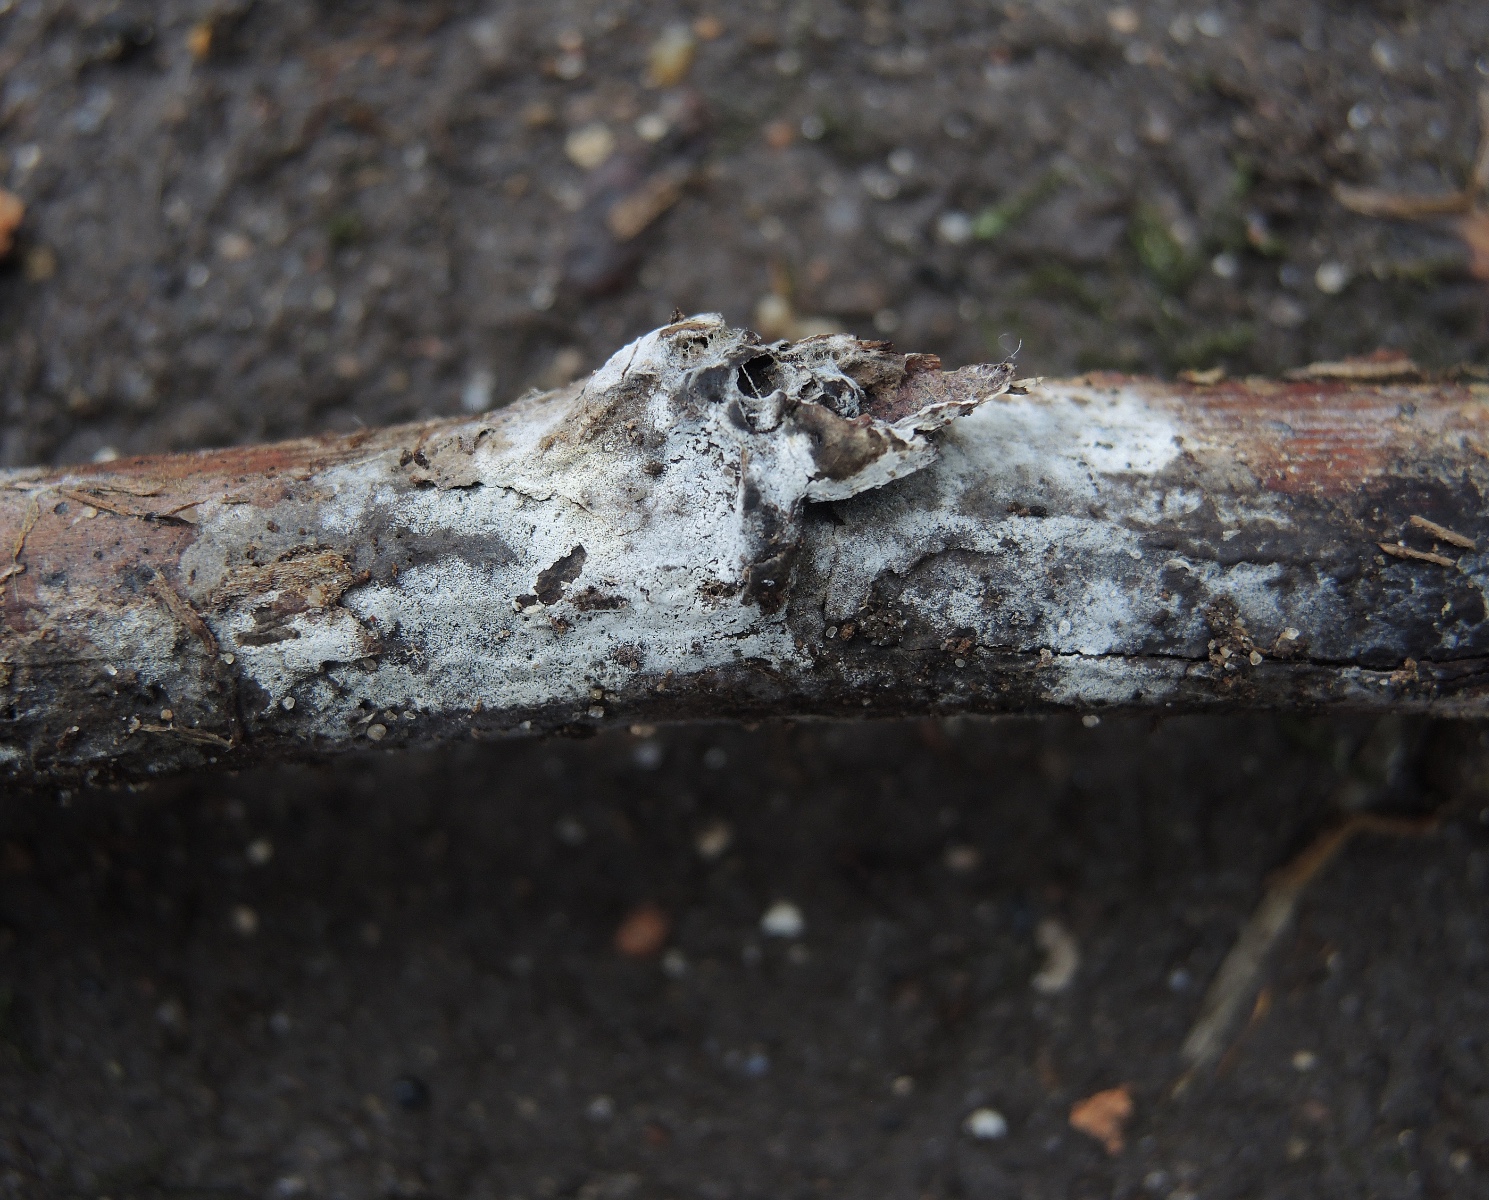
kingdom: Fungi
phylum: Basidiomycota
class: Agaricomycetes
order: Corticiales
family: Corticiaceae
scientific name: Corticiaceae
